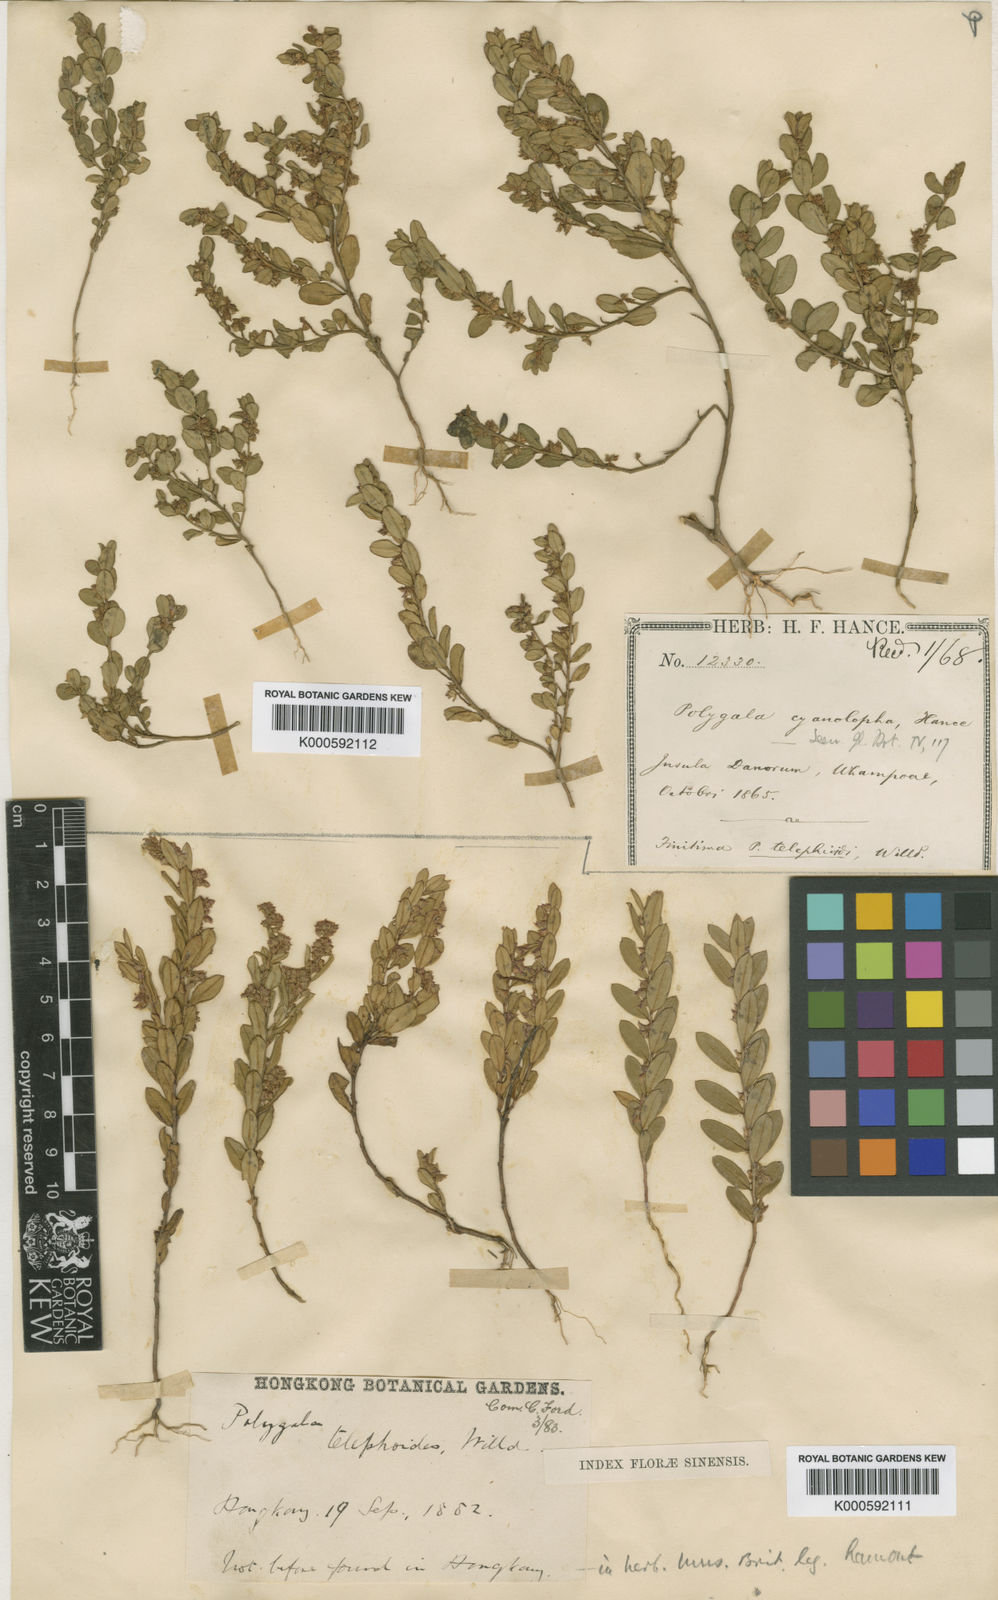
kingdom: Plantae
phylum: Tracheophyta
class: Magnoliopsida
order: Fabales
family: Polygalaceae
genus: Polygala
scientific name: Polygala telephioides
